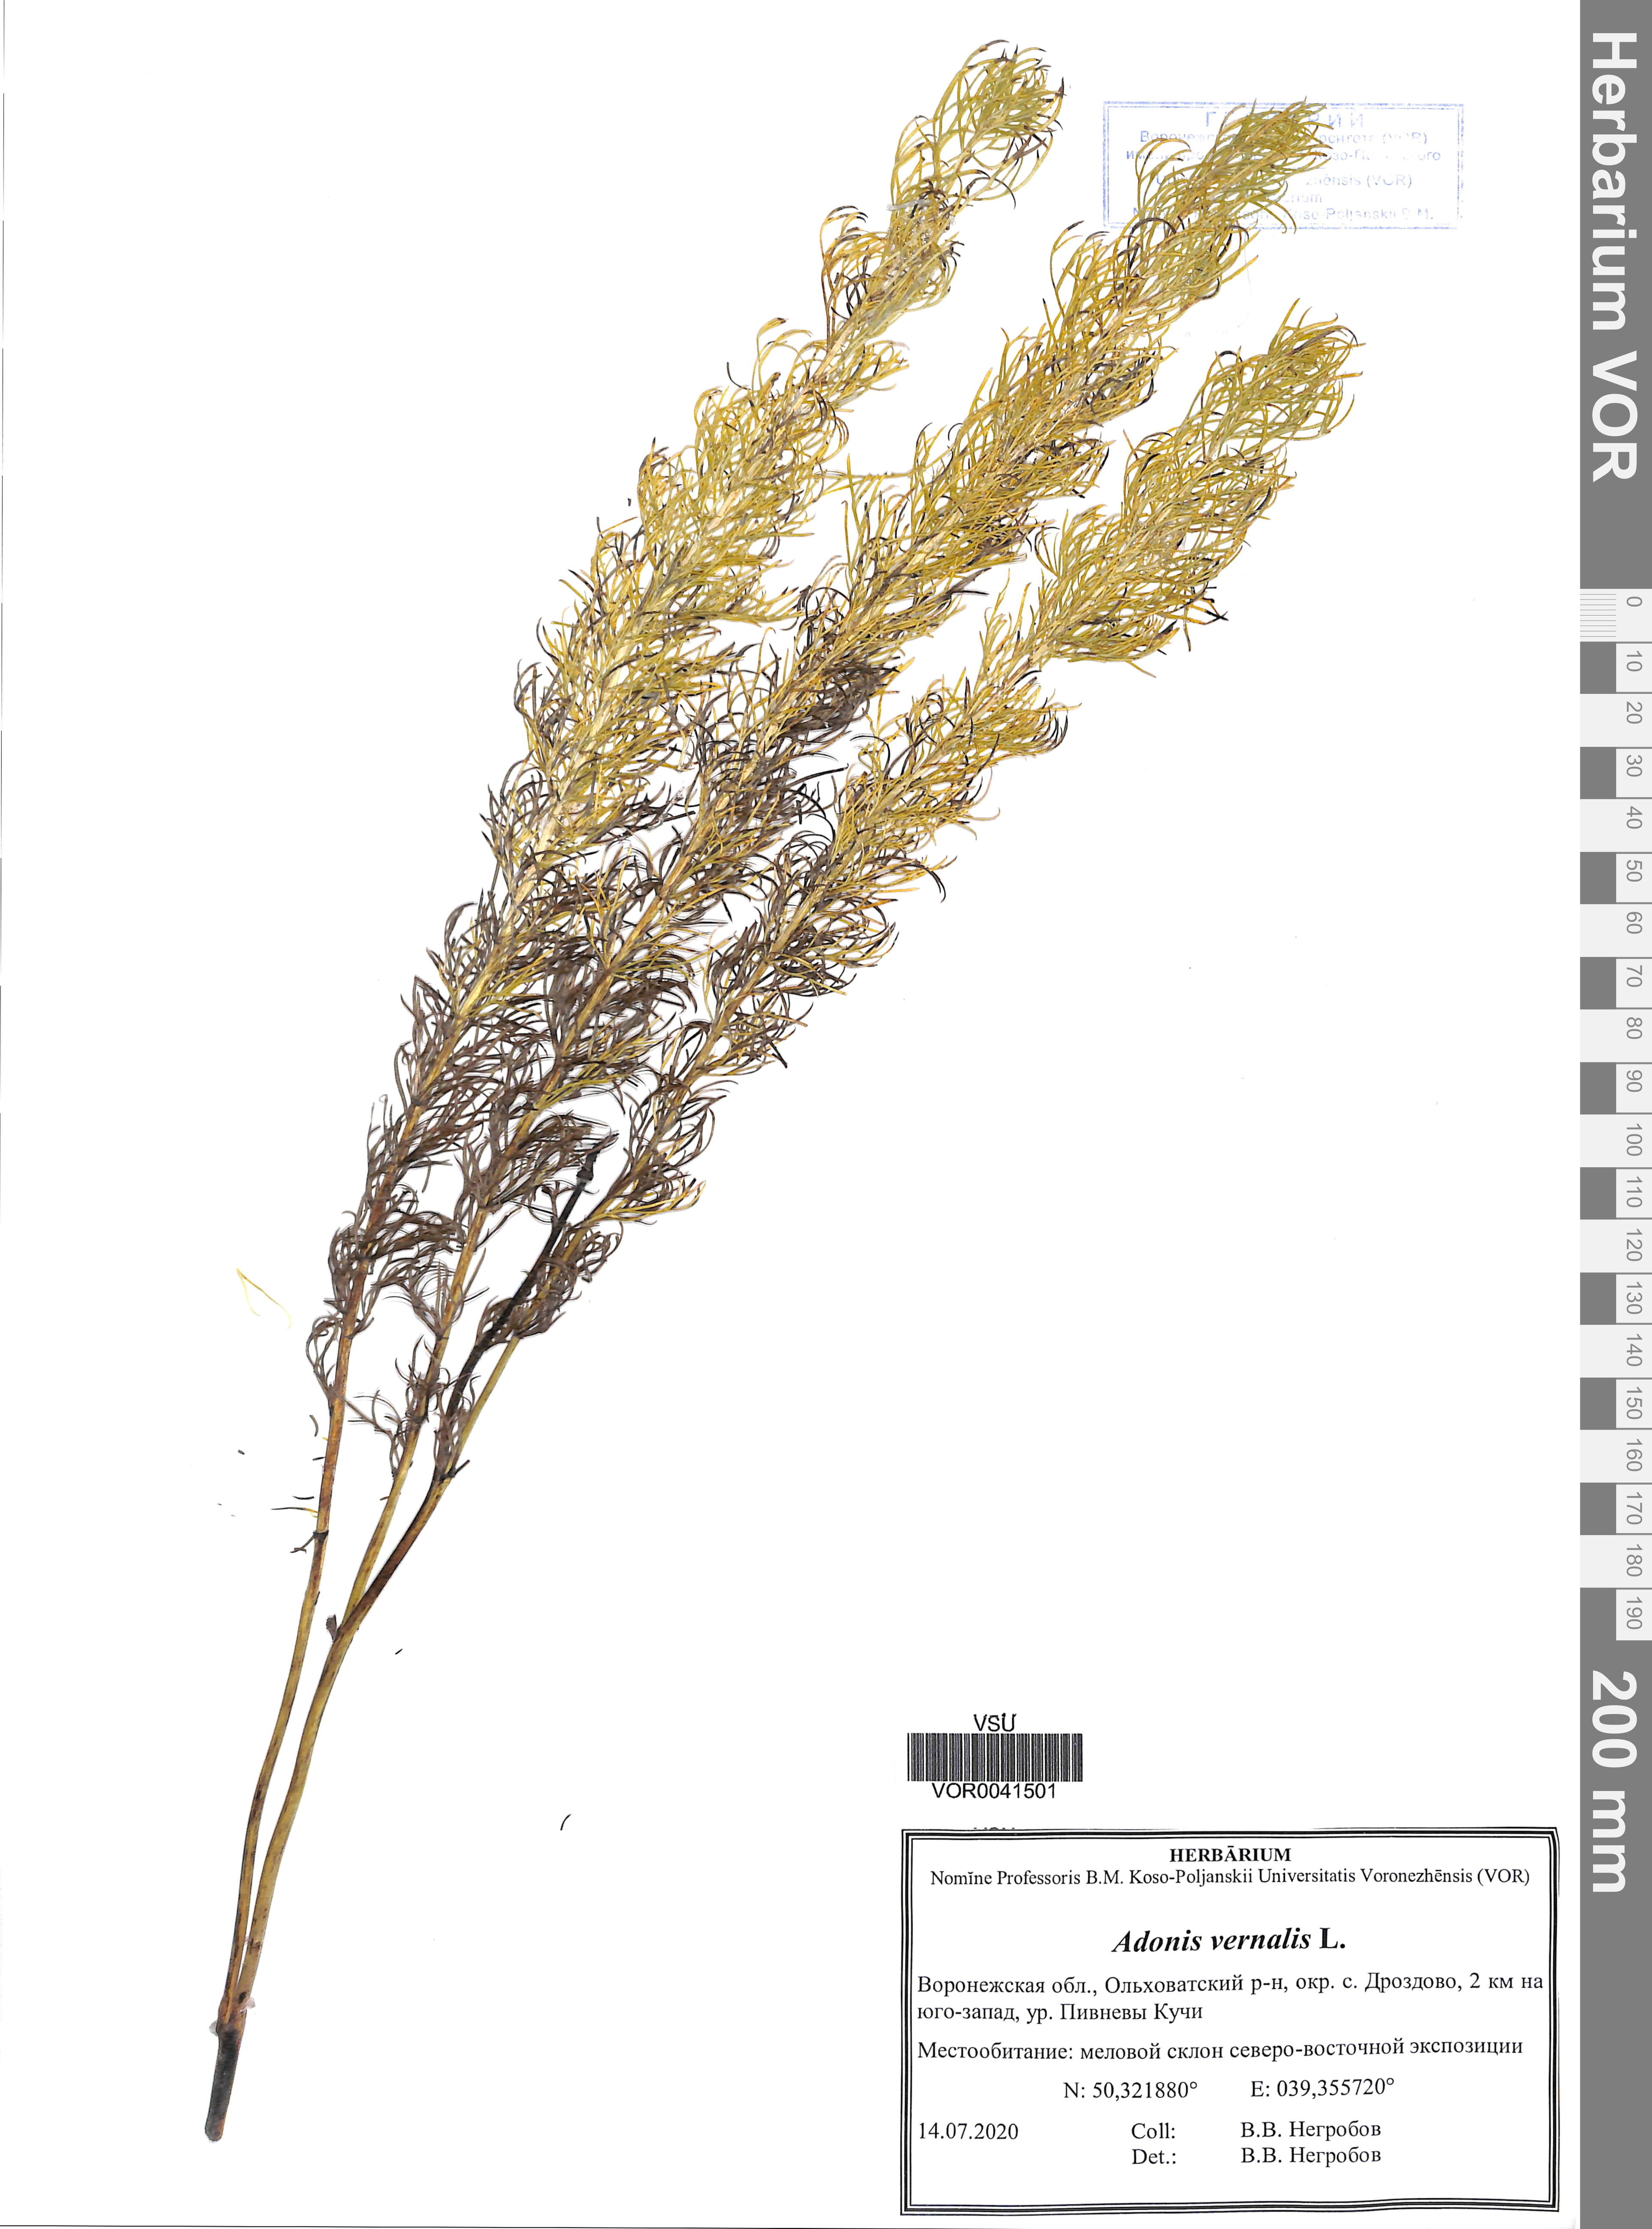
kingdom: Plantae
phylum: Tracheophyta
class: Magnoliopsida
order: Ranunculales
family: Ranunculaceae
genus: Adonis
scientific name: Adonis vernalis
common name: Yellow pheasants-eye
